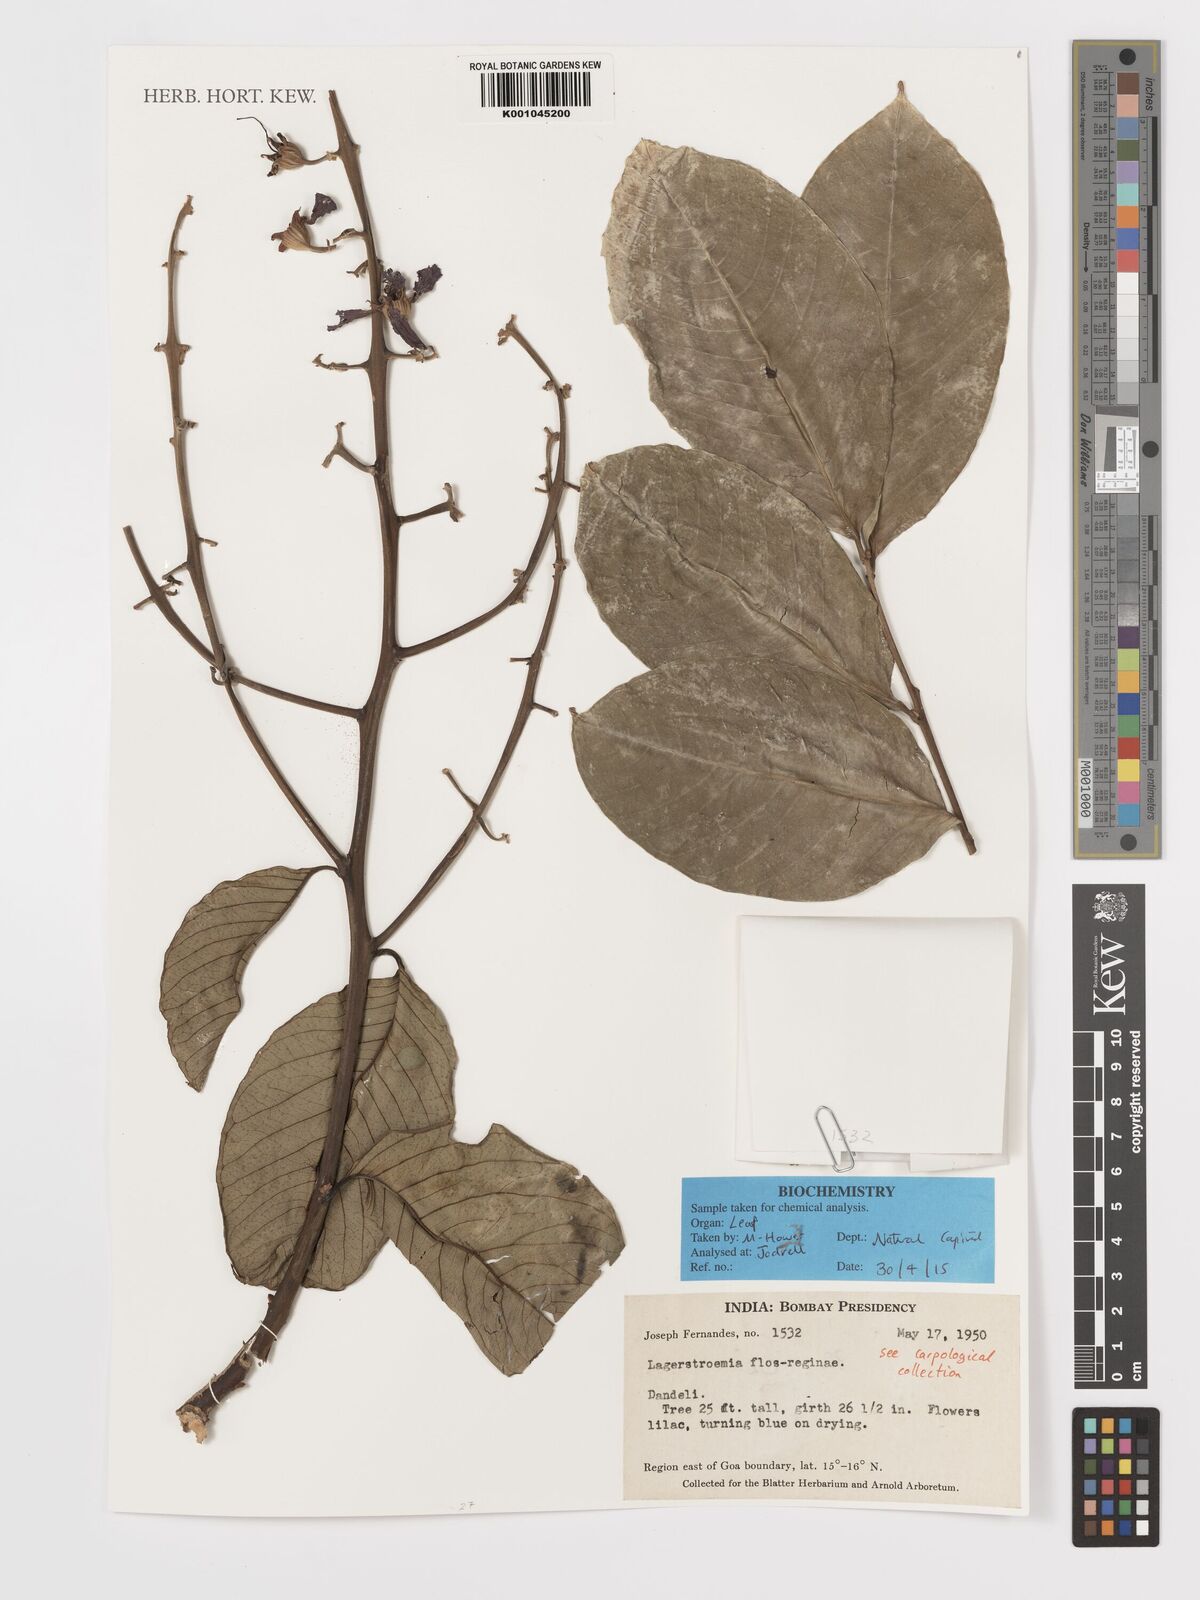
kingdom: Plantae
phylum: Tracheophyta
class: Magnoliopsida
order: Myrtales
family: Lythraceae
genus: Lagerstroemia
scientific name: Lagerstroemia speciosa
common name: Queen's crape-myrtle
